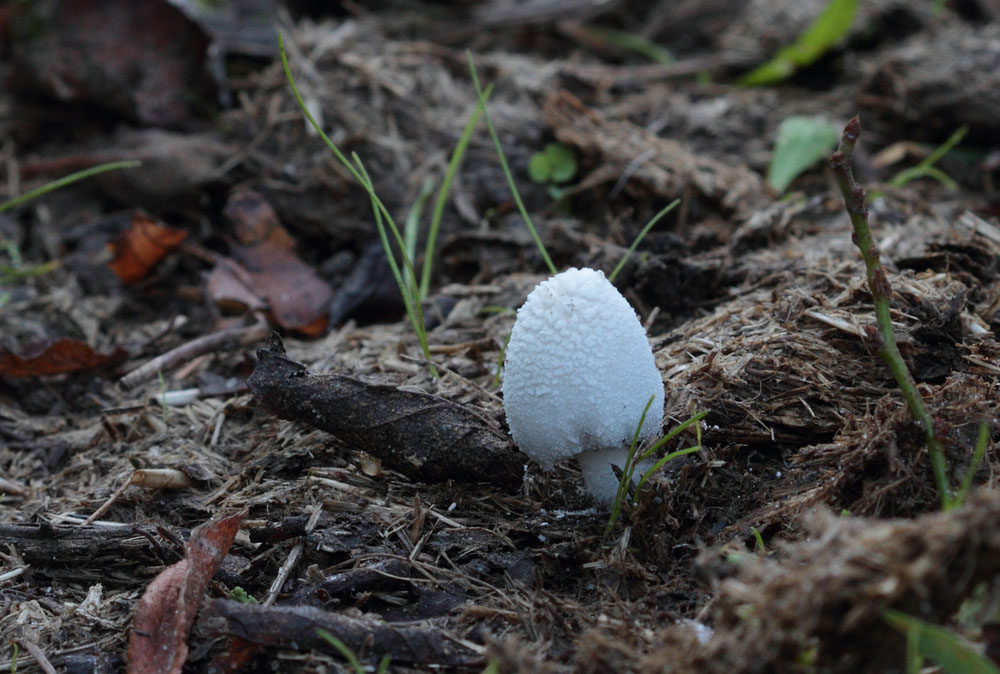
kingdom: Fungi
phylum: Basidiomycota
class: Agaricomycetes
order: Agaricales
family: Psathyrellaceae
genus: Coprinopsis
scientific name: Coprinopsis nivea
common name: snehvid blækhat
